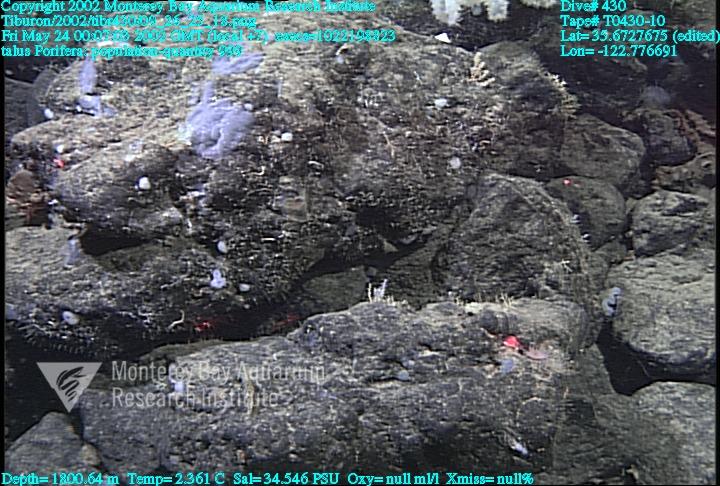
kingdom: Animalia
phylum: Porifera
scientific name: Porifera
